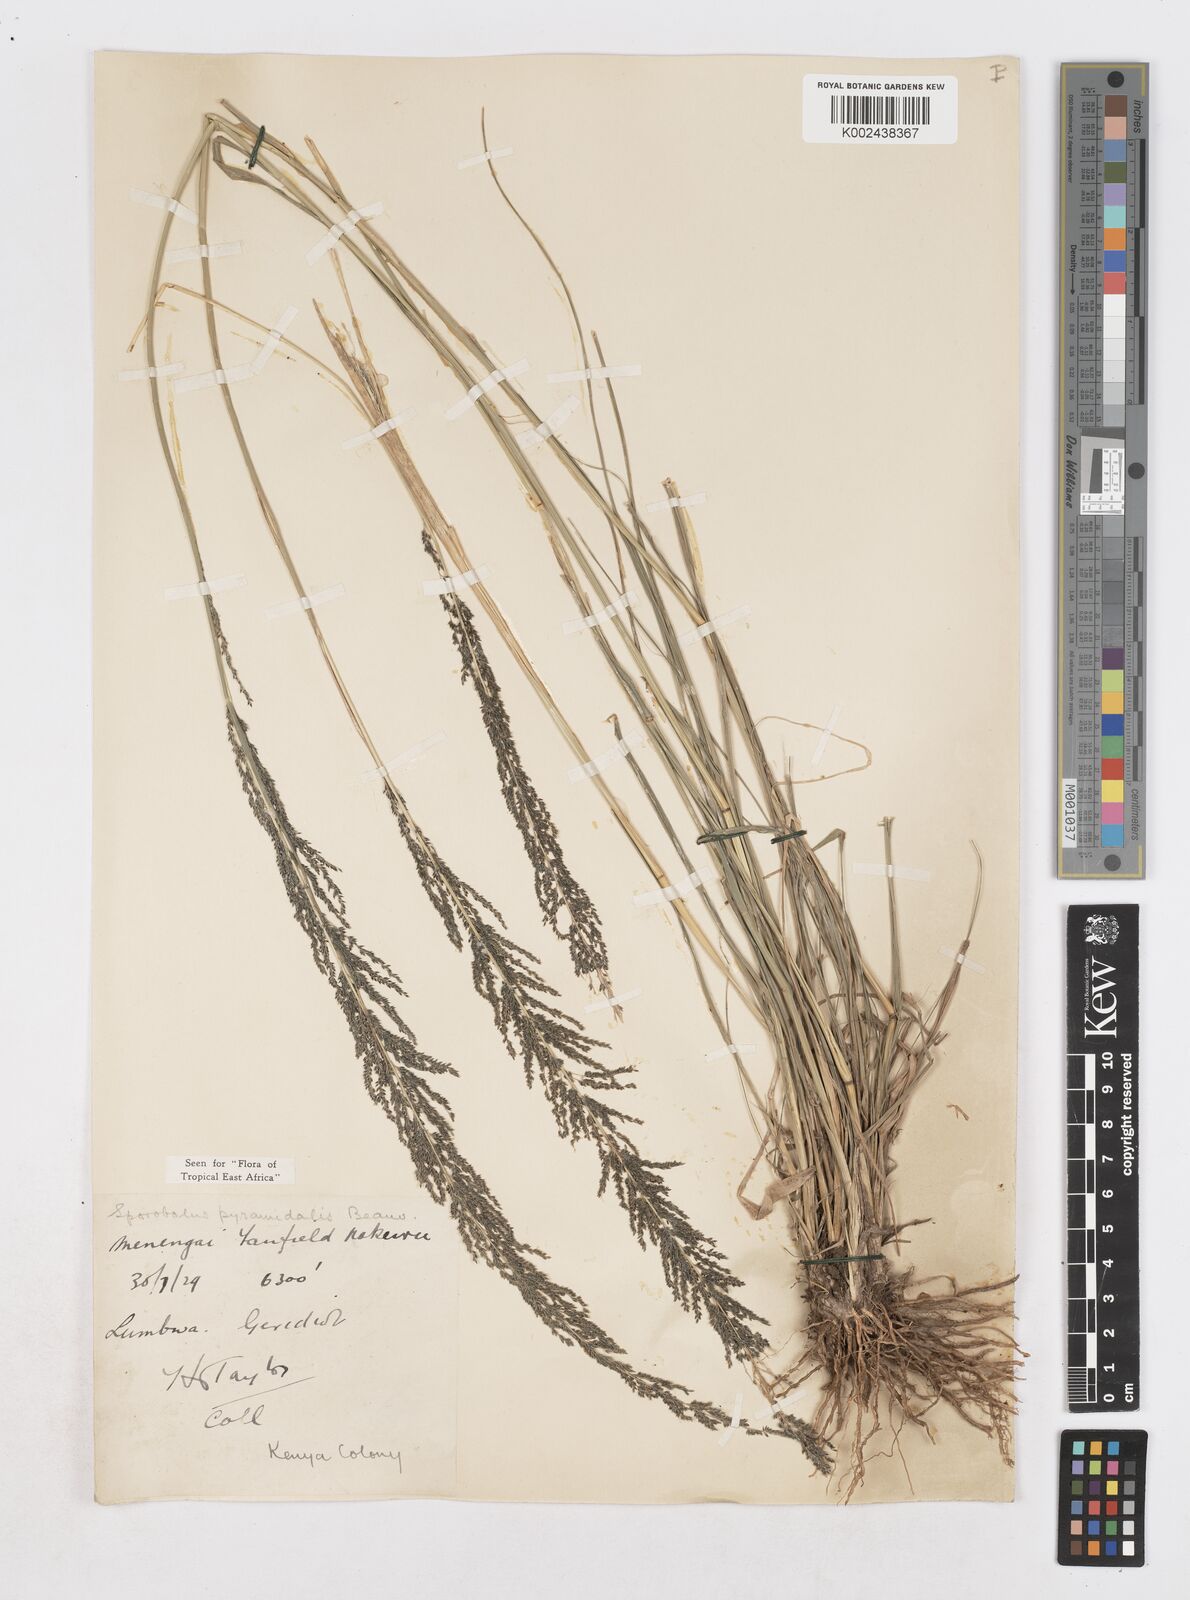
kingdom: Plantae
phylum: Tracheophyta
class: Liliopsida
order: Poales
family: Poaceae
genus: Sporobolus
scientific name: Sporobolus pyramidalis
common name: West indian dropseed
